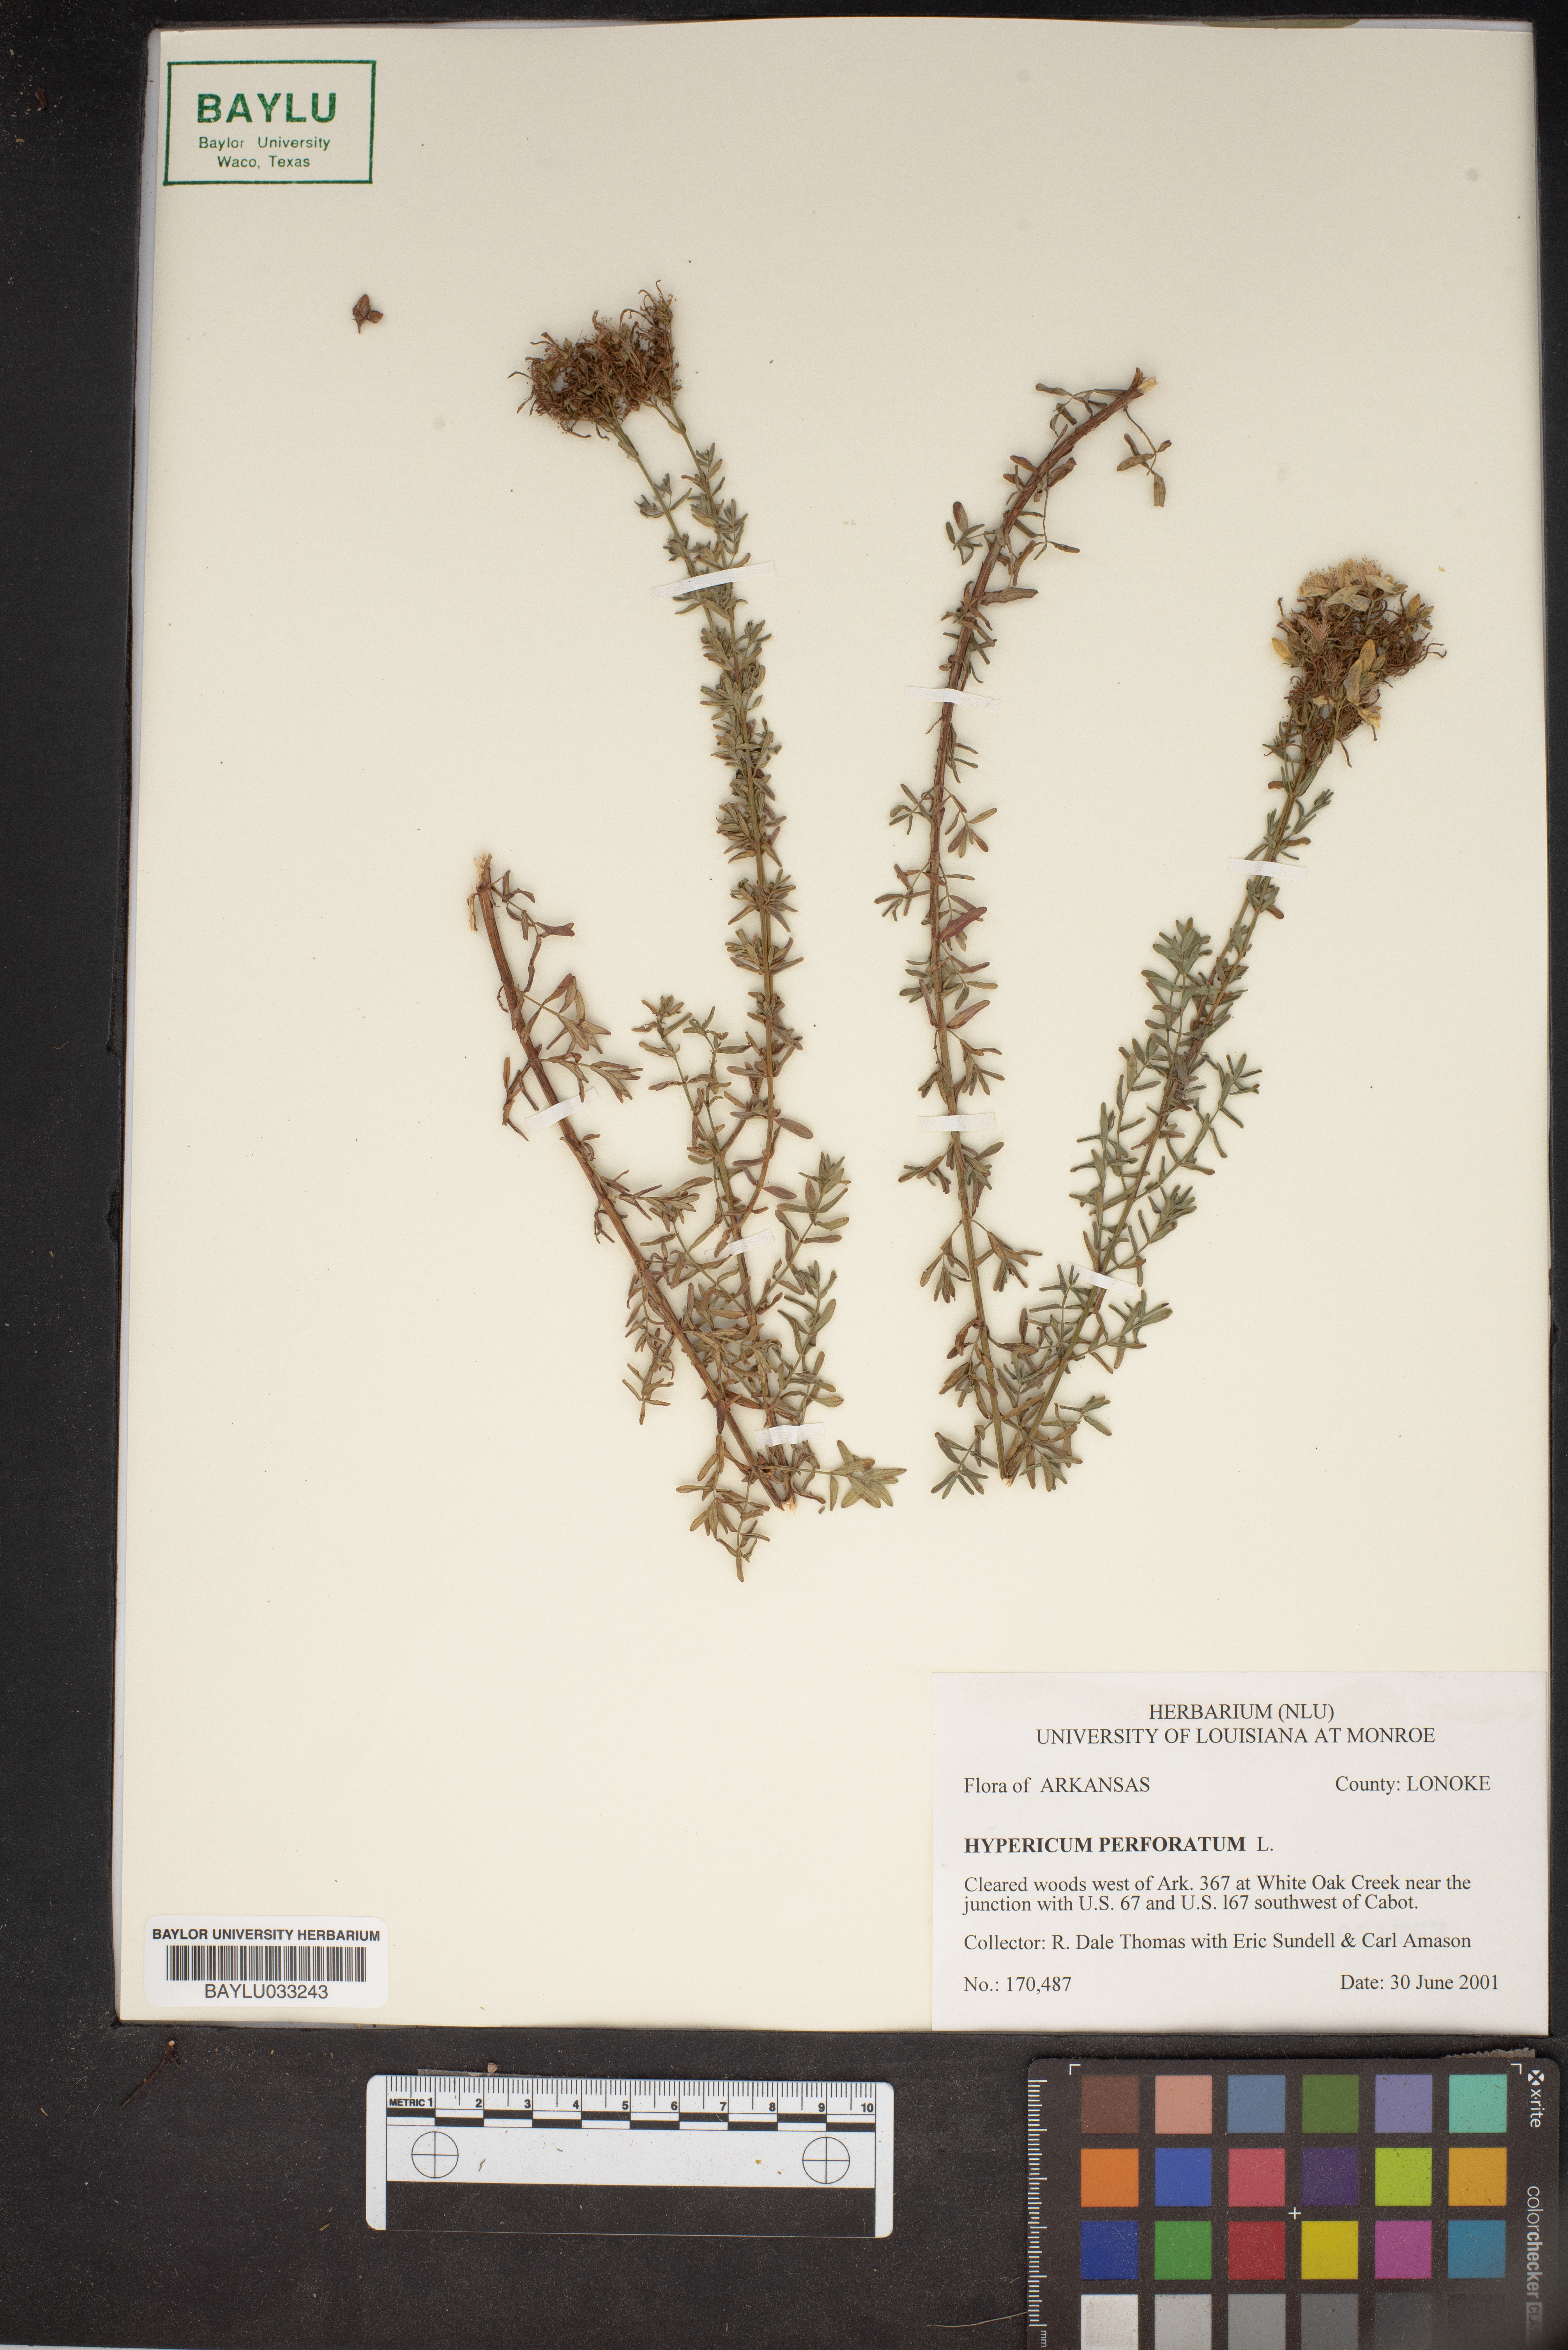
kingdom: Plantae
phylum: Tracheophyta
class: Magnoliopsida
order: Malpighiales
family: Hypericaceae
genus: Hypericum
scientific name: Hypericum perforatum
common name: Common st. johnswort
